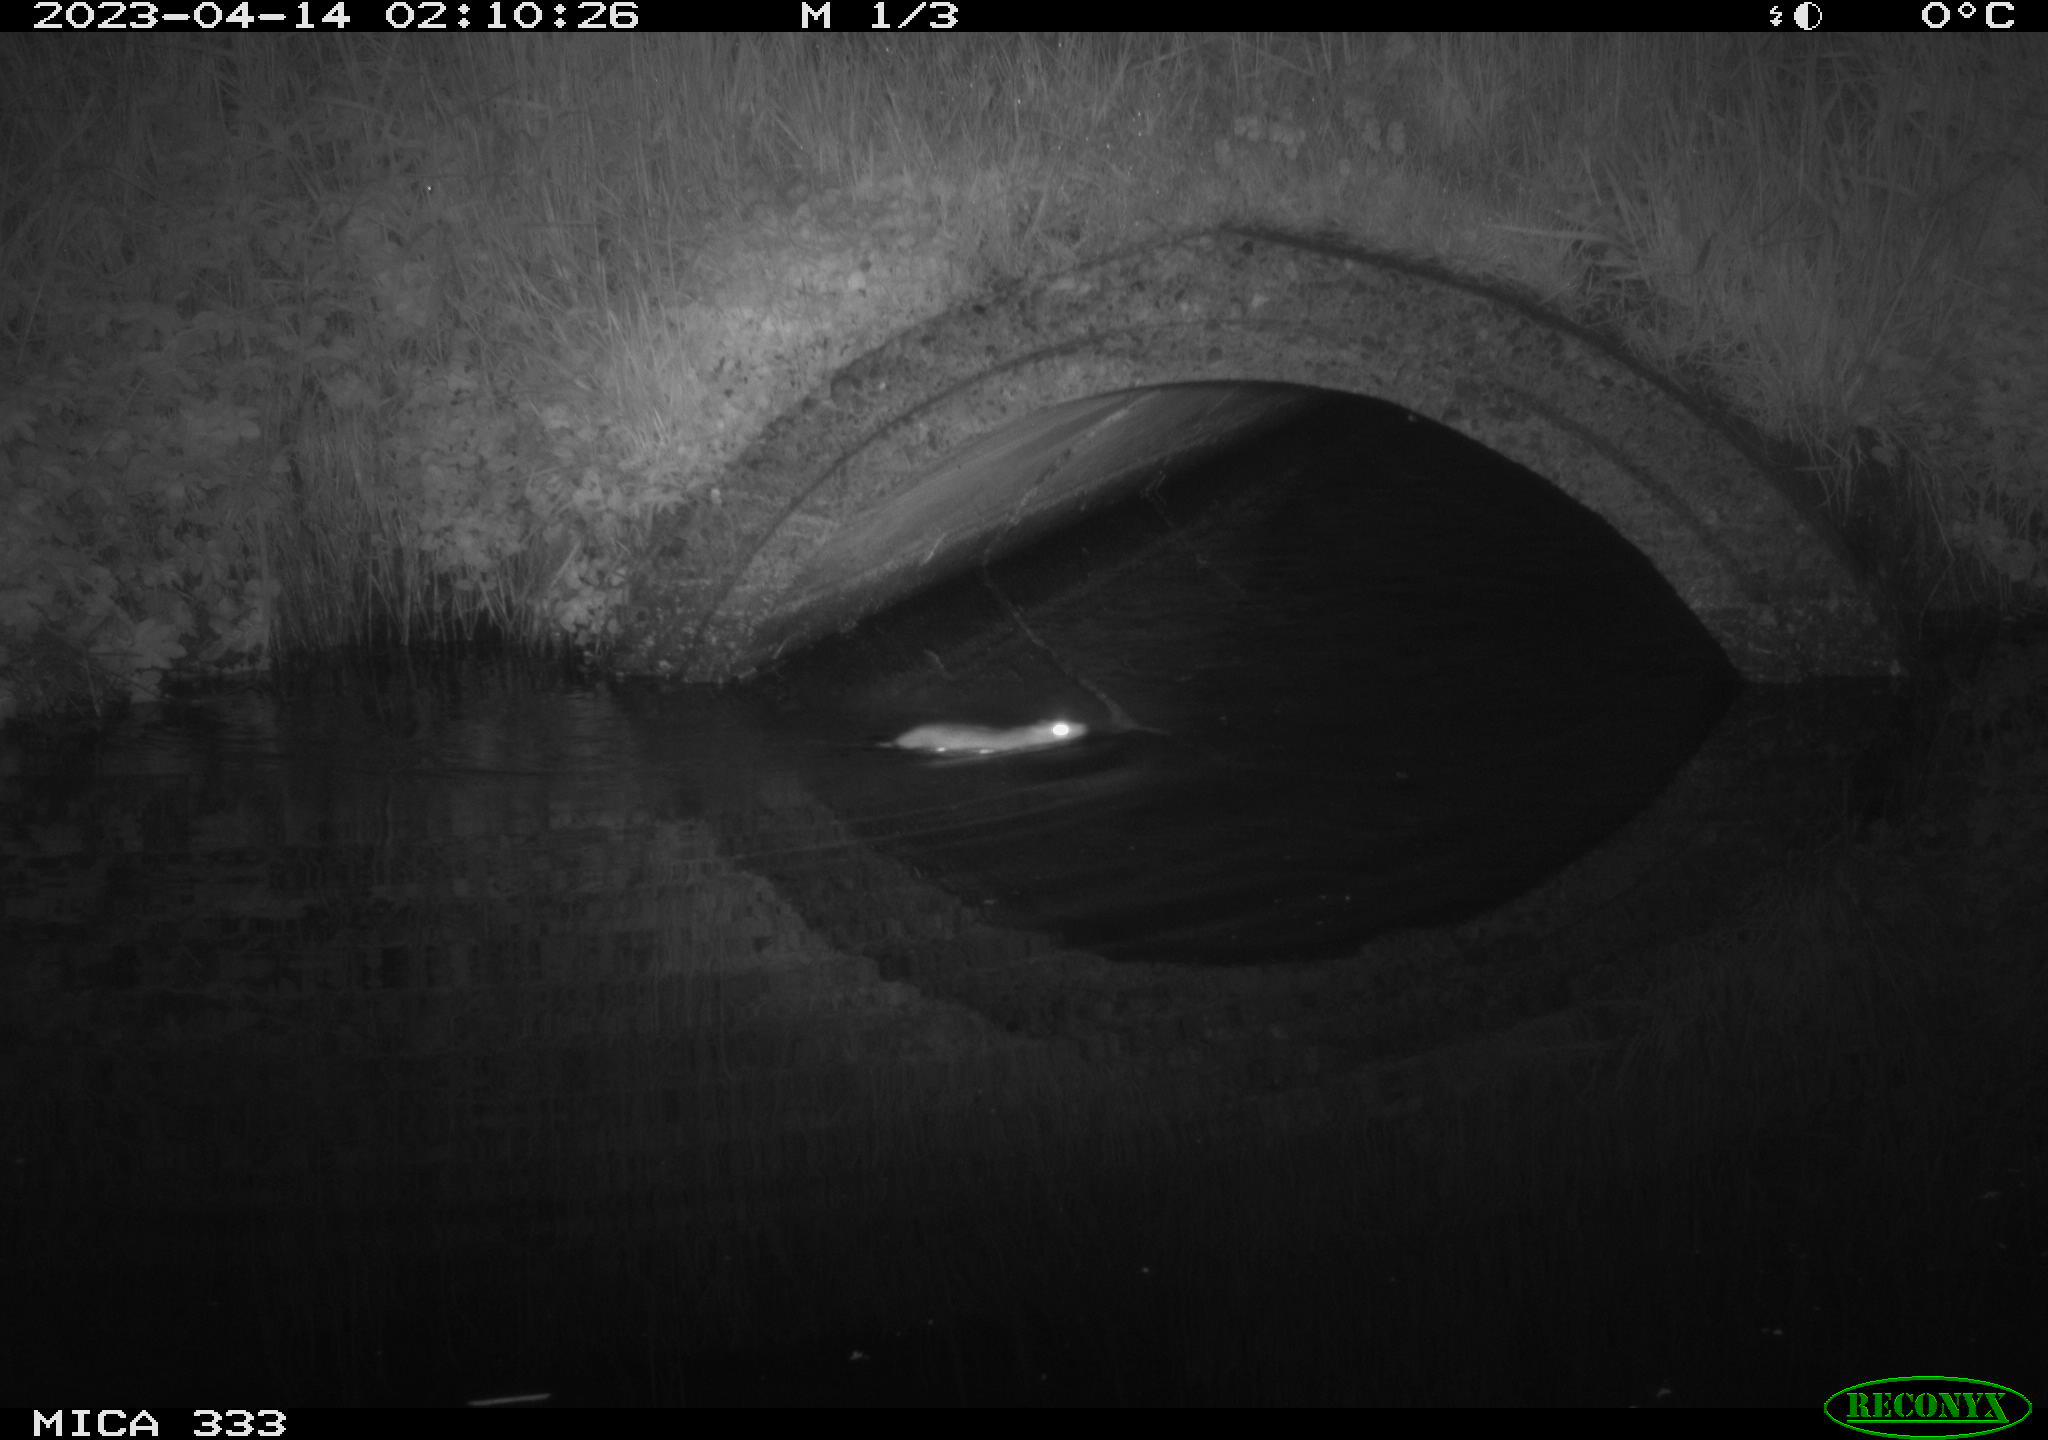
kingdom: Animalia
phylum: Chordata
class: Mammalia
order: Rodentia
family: Muridae
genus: Rattus
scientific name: Rattus norvegicus
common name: Brown rat
